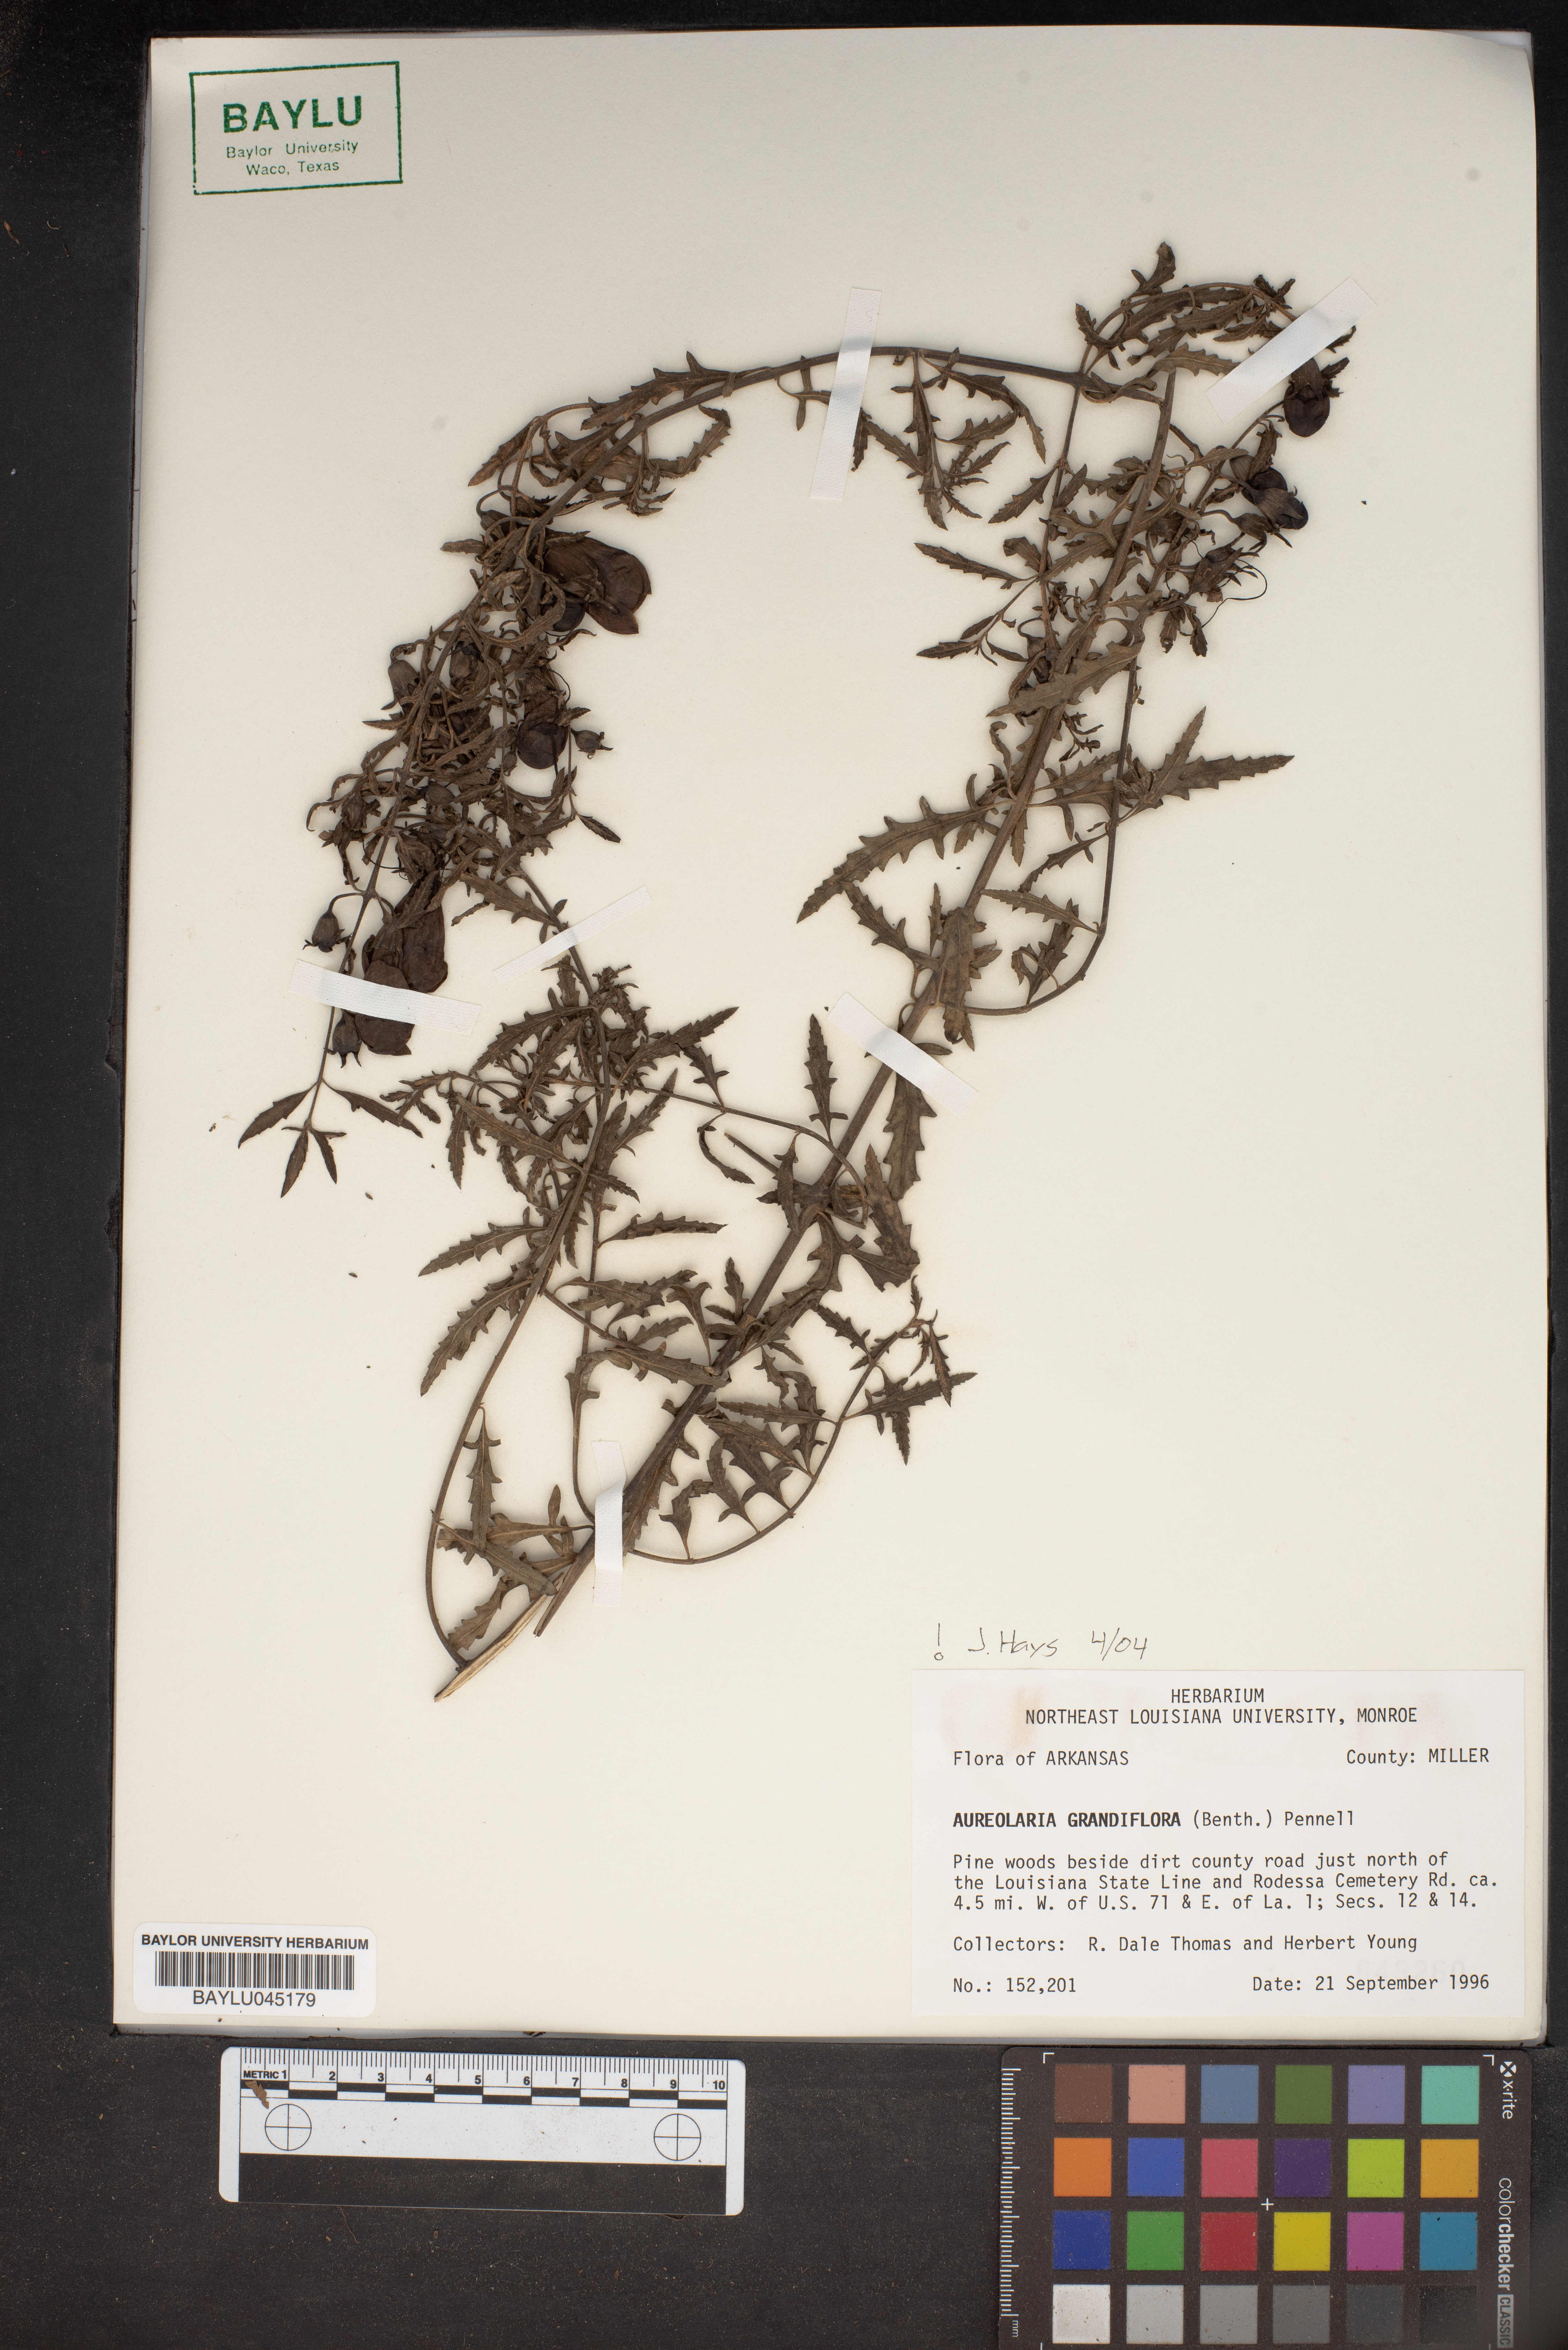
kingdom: Plantae
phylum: Tracheophyta
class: Magnoliopsida
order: Lamiales
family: Orobanchaceae
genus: Aureolaria
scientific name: Aureolaria grandiflora
